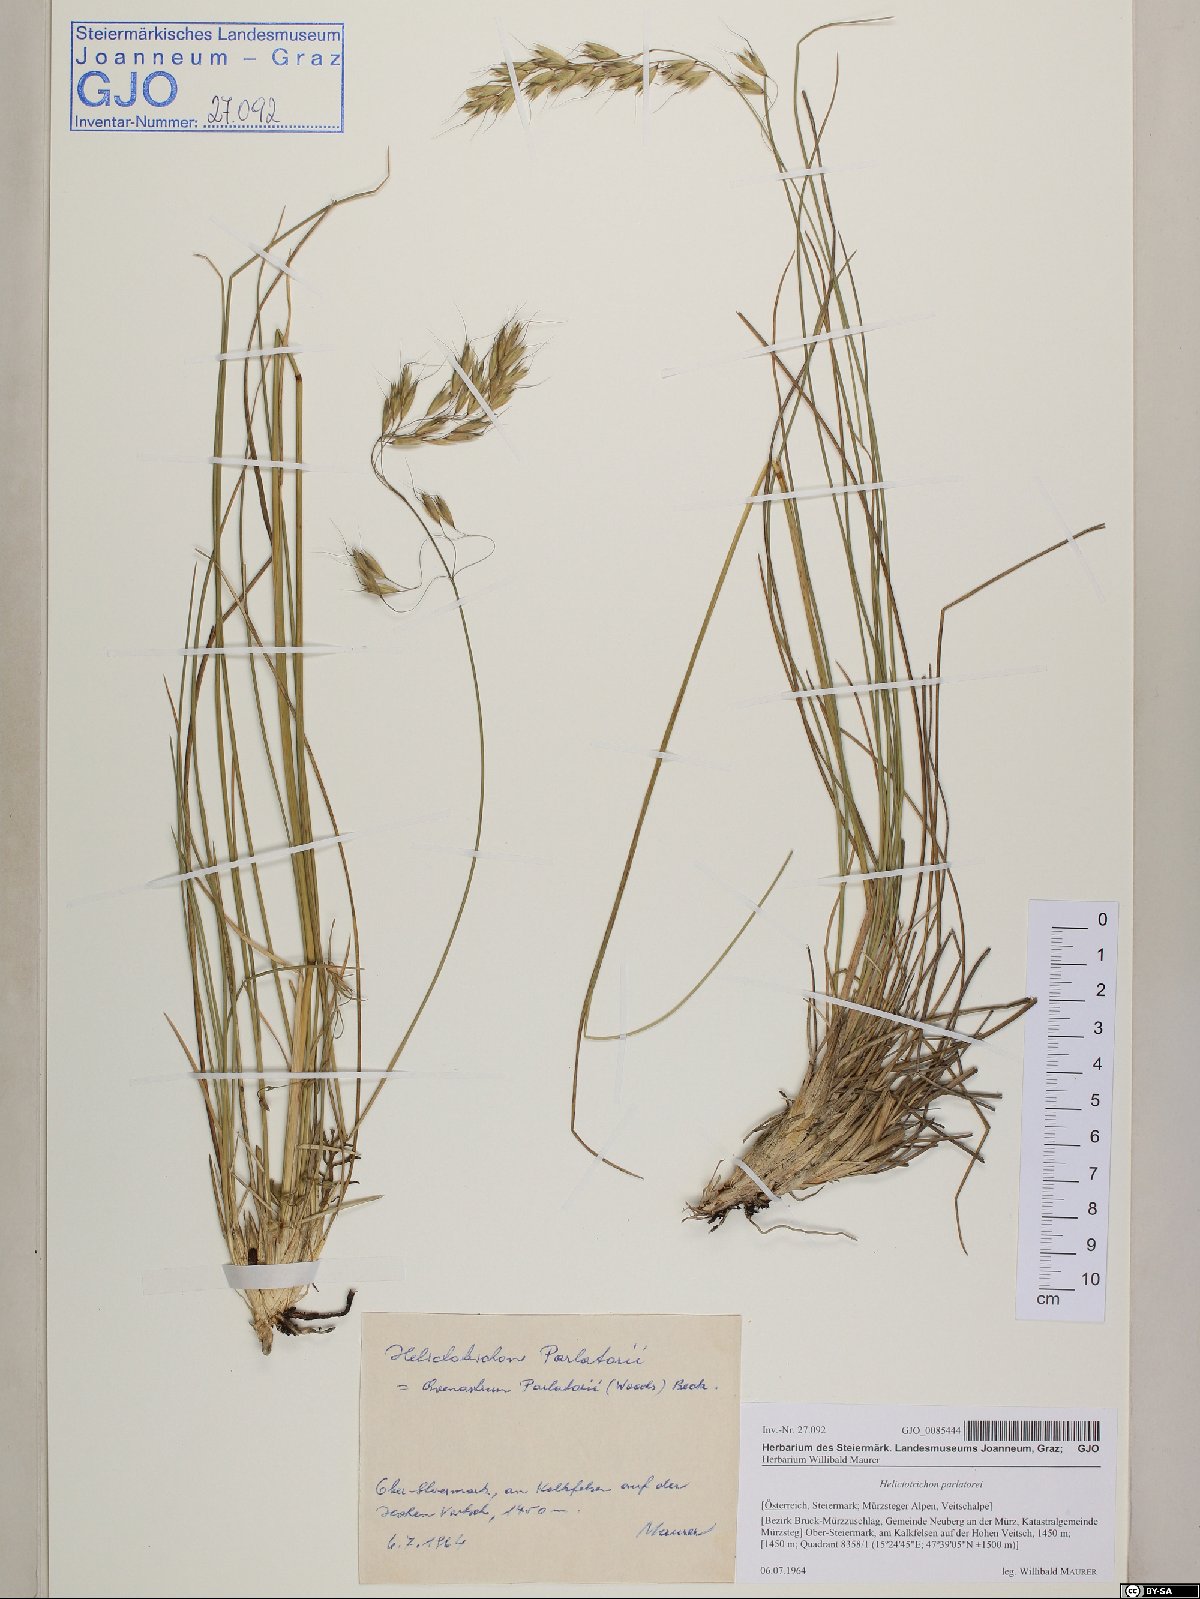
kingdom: Plantae
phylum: Tracheophyta
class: Liliopsida
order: Poales
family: Poaceae
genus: Helictotrichon
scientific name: Helictotrichon parlatorei
